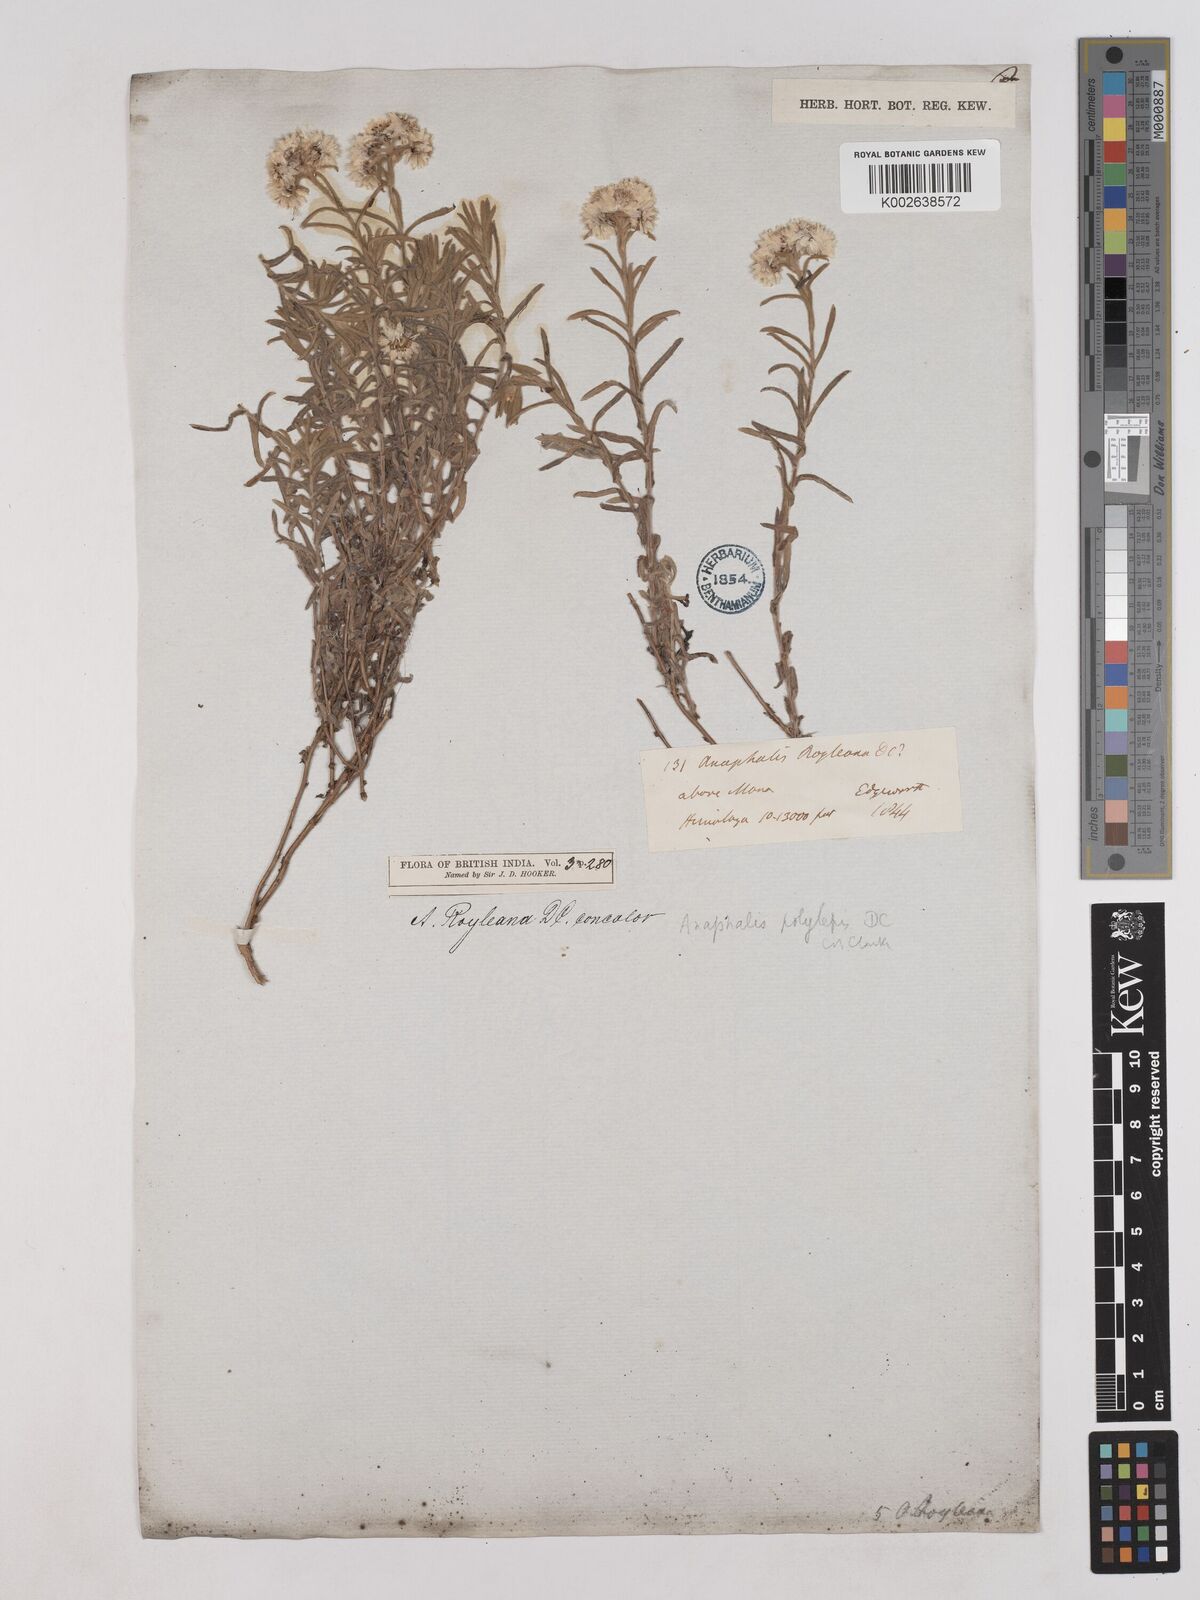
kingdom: Plantae
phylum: Tracheophyta
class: Magnoliopsida
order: Asterales
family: Asteraceae
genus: Anaphalis
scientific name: Anaphalis royleana
